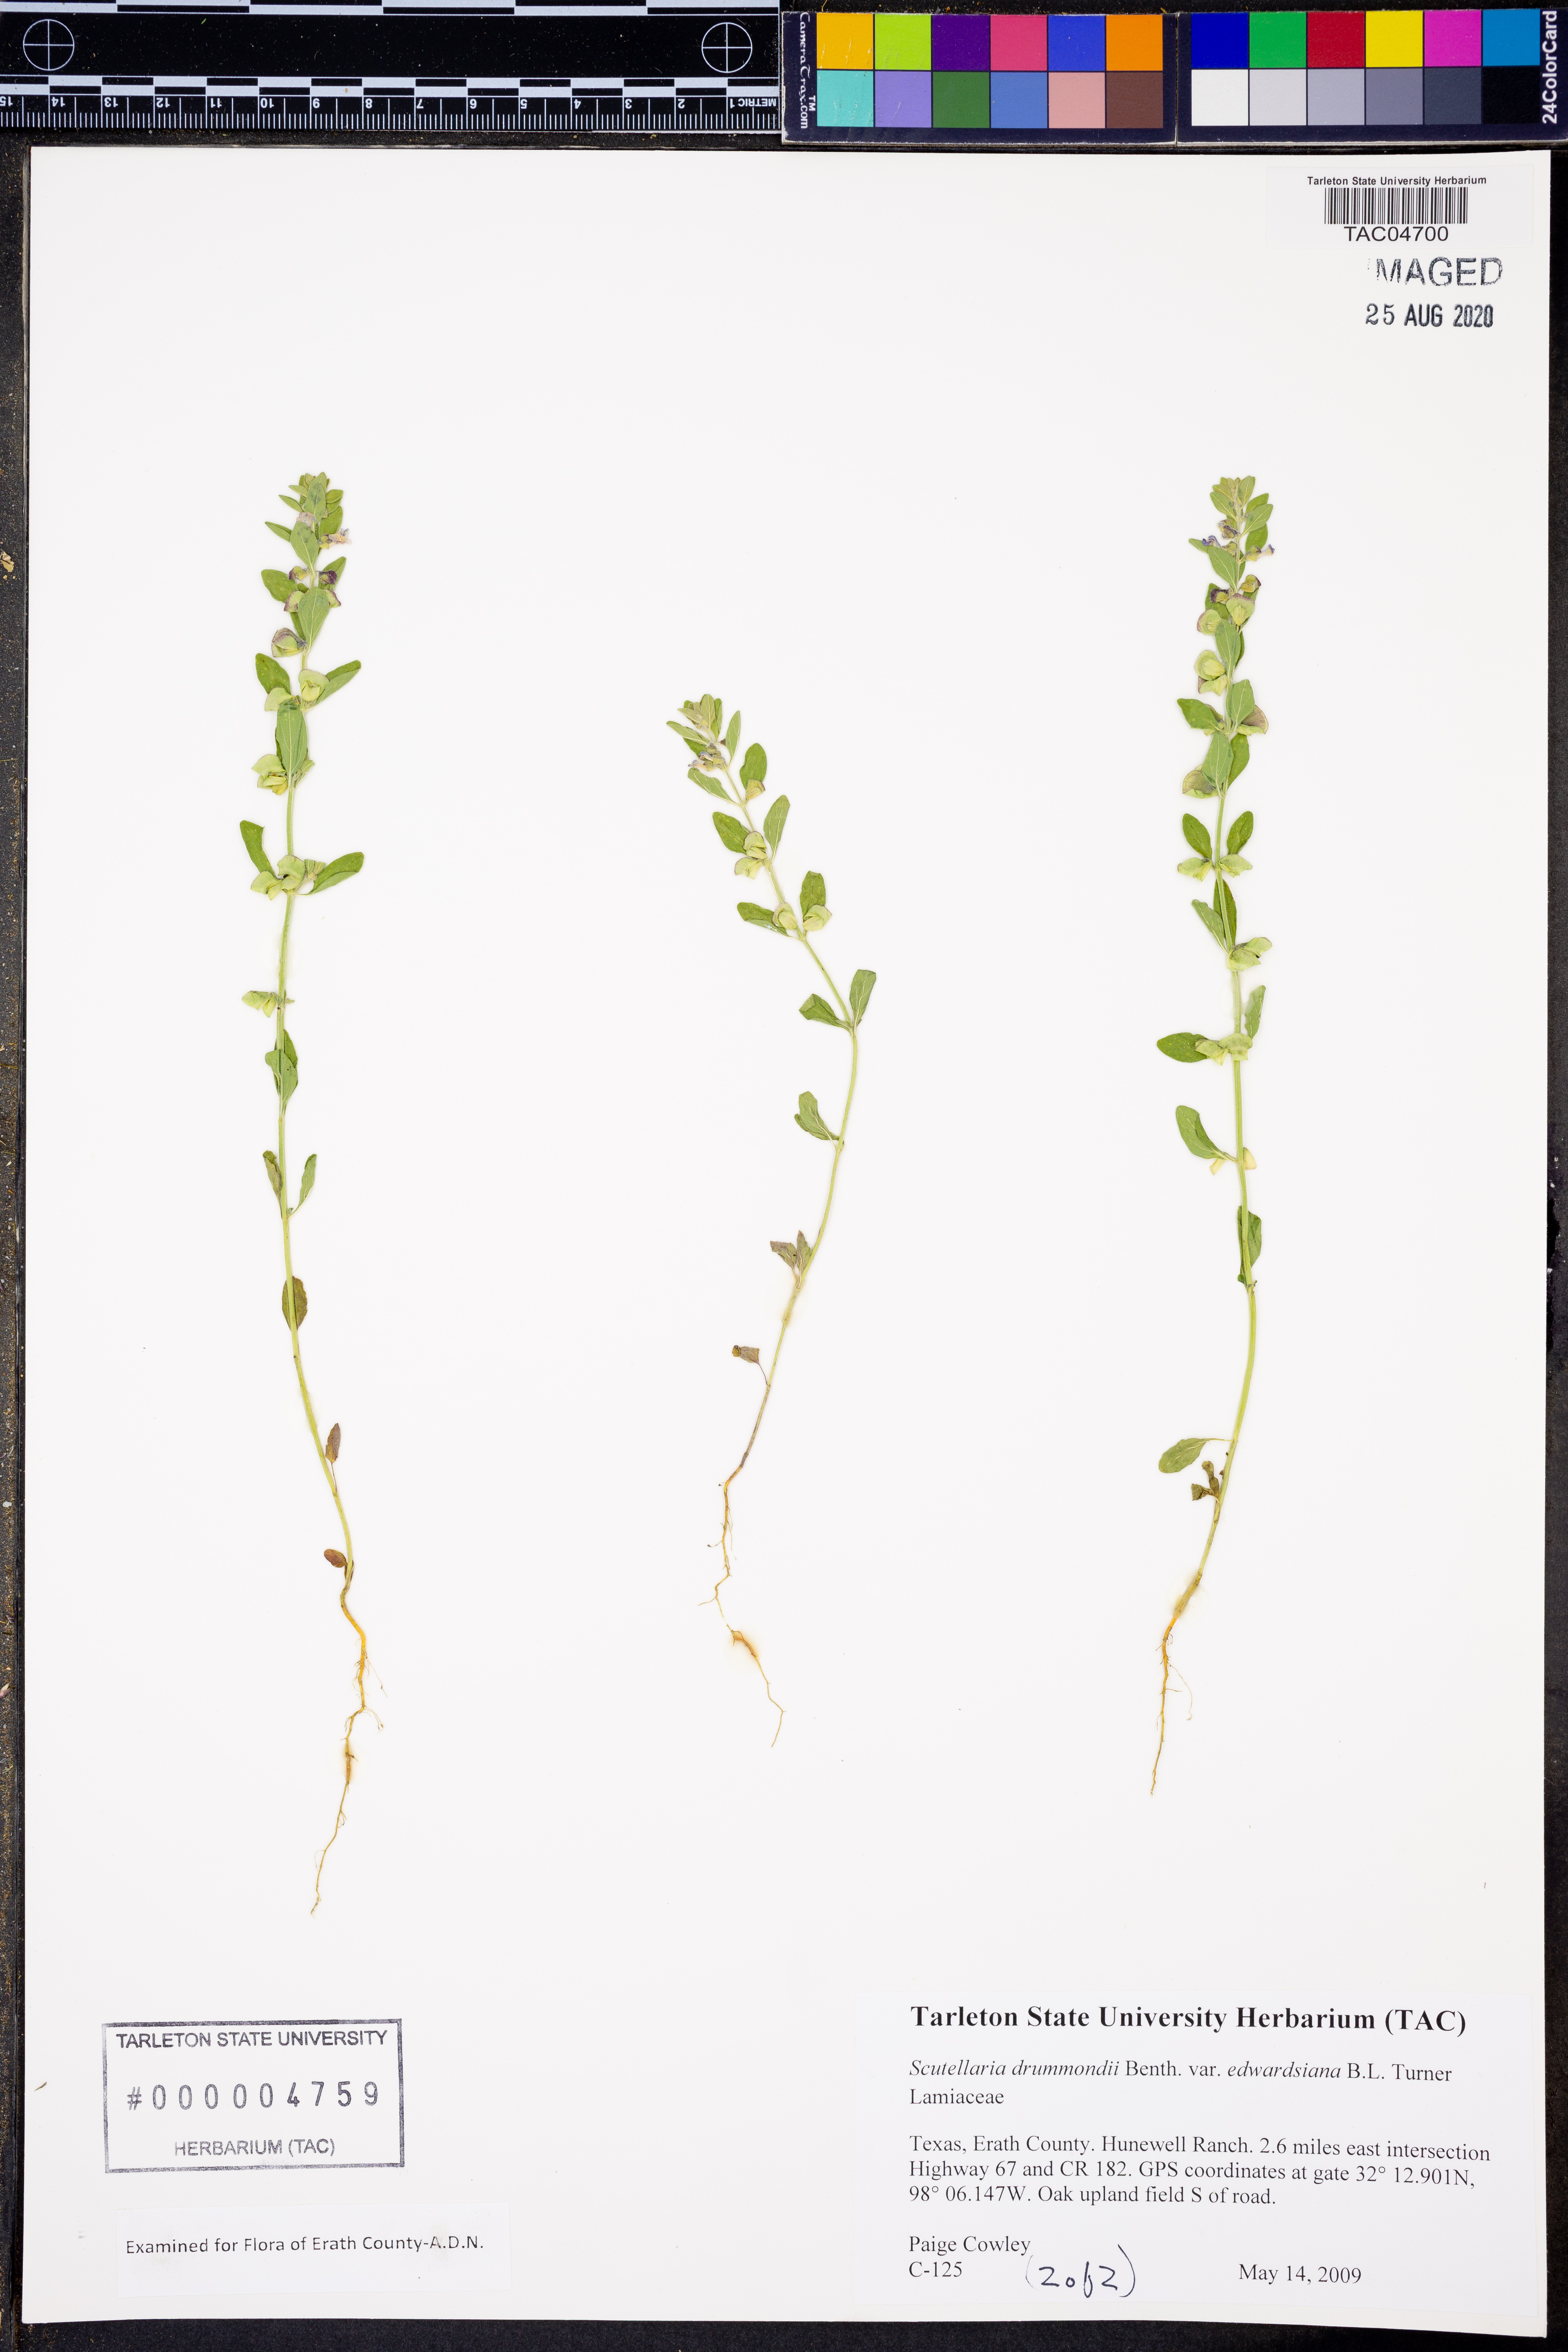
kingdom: Plantae
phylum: Tracheophyta
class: Magnoliopsida
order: Lamiales
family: Lamiaceae
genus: Scutellaria
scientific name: Scutellaria drummondii
